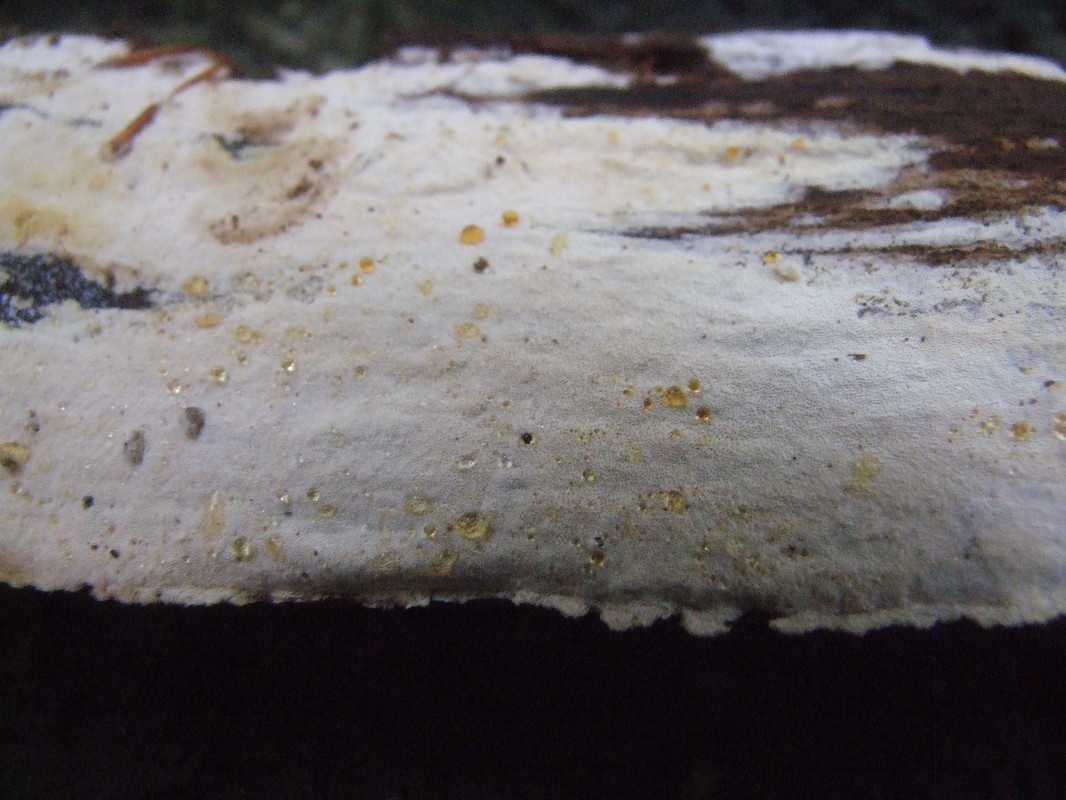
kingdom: Fungi
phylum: Basidiomycota
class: Agaricomycetes
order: Hymenochaetales
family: Rickenellaceae
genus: Sidera
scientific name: Sidera vulgaris
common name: fin flødeporesvamp
